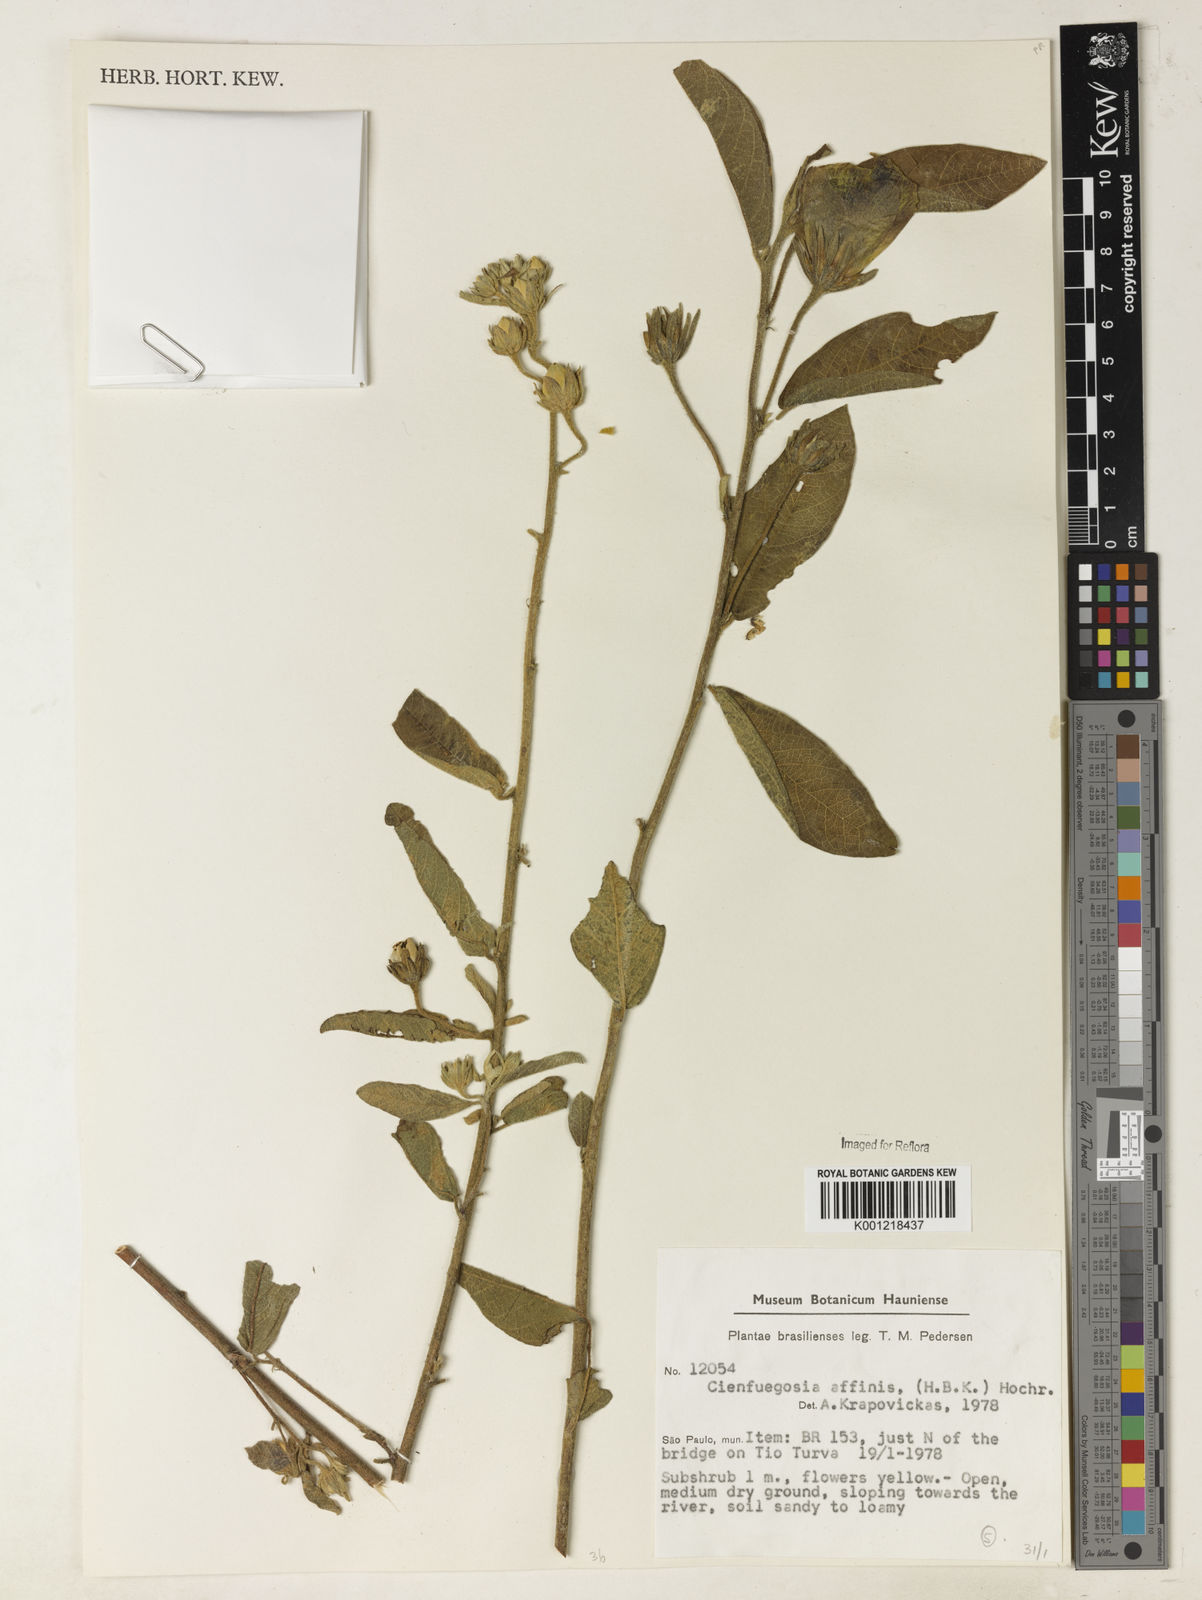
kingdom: Plantae
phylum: Tracheophyta
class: Magnoliopsida
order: Malvales
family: Malvaceae
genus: Cienfuegosia
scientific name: Cienfuegosia affinis
